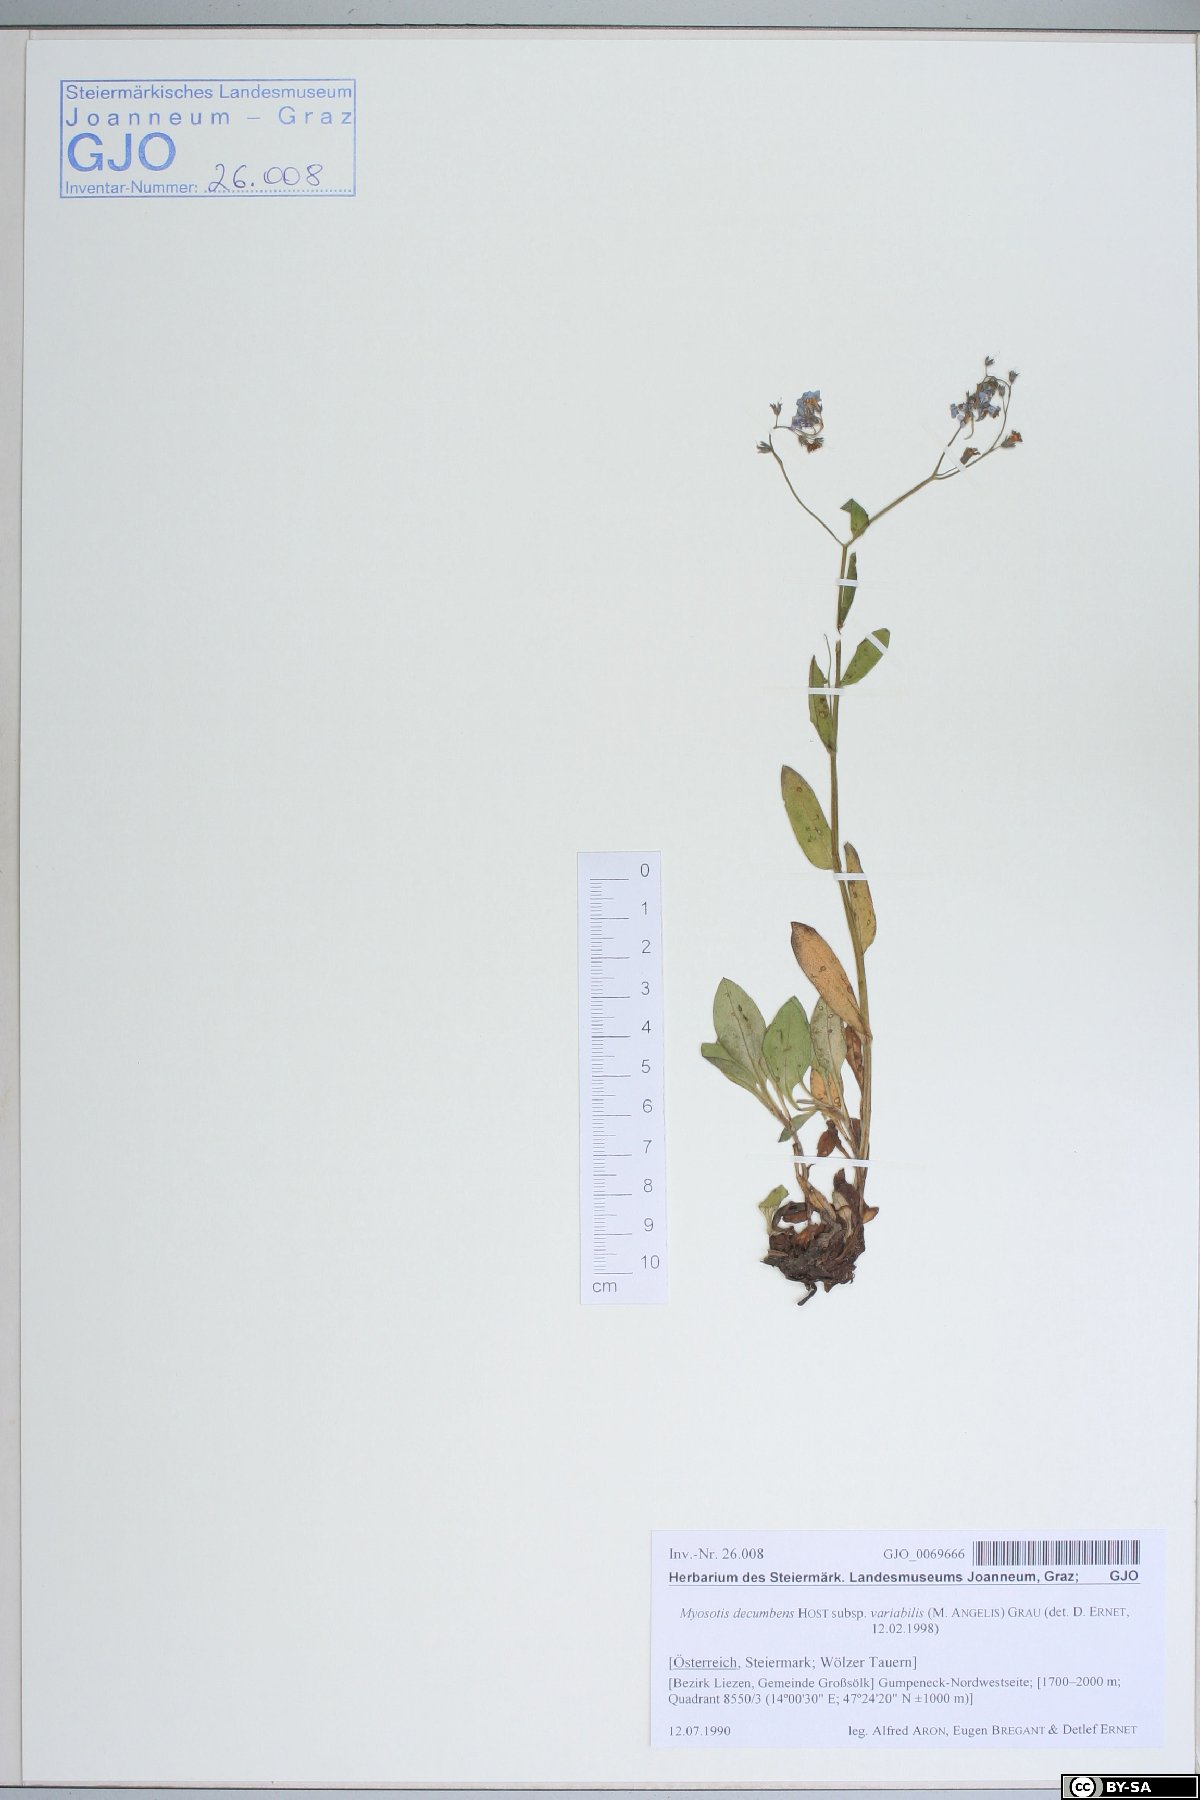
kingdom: Plantae
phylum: Tracheophyta
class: Magnoliopsida
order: Boraginales
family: Boraginaceae
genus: Myosotis
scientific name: Myosotis decumbens
